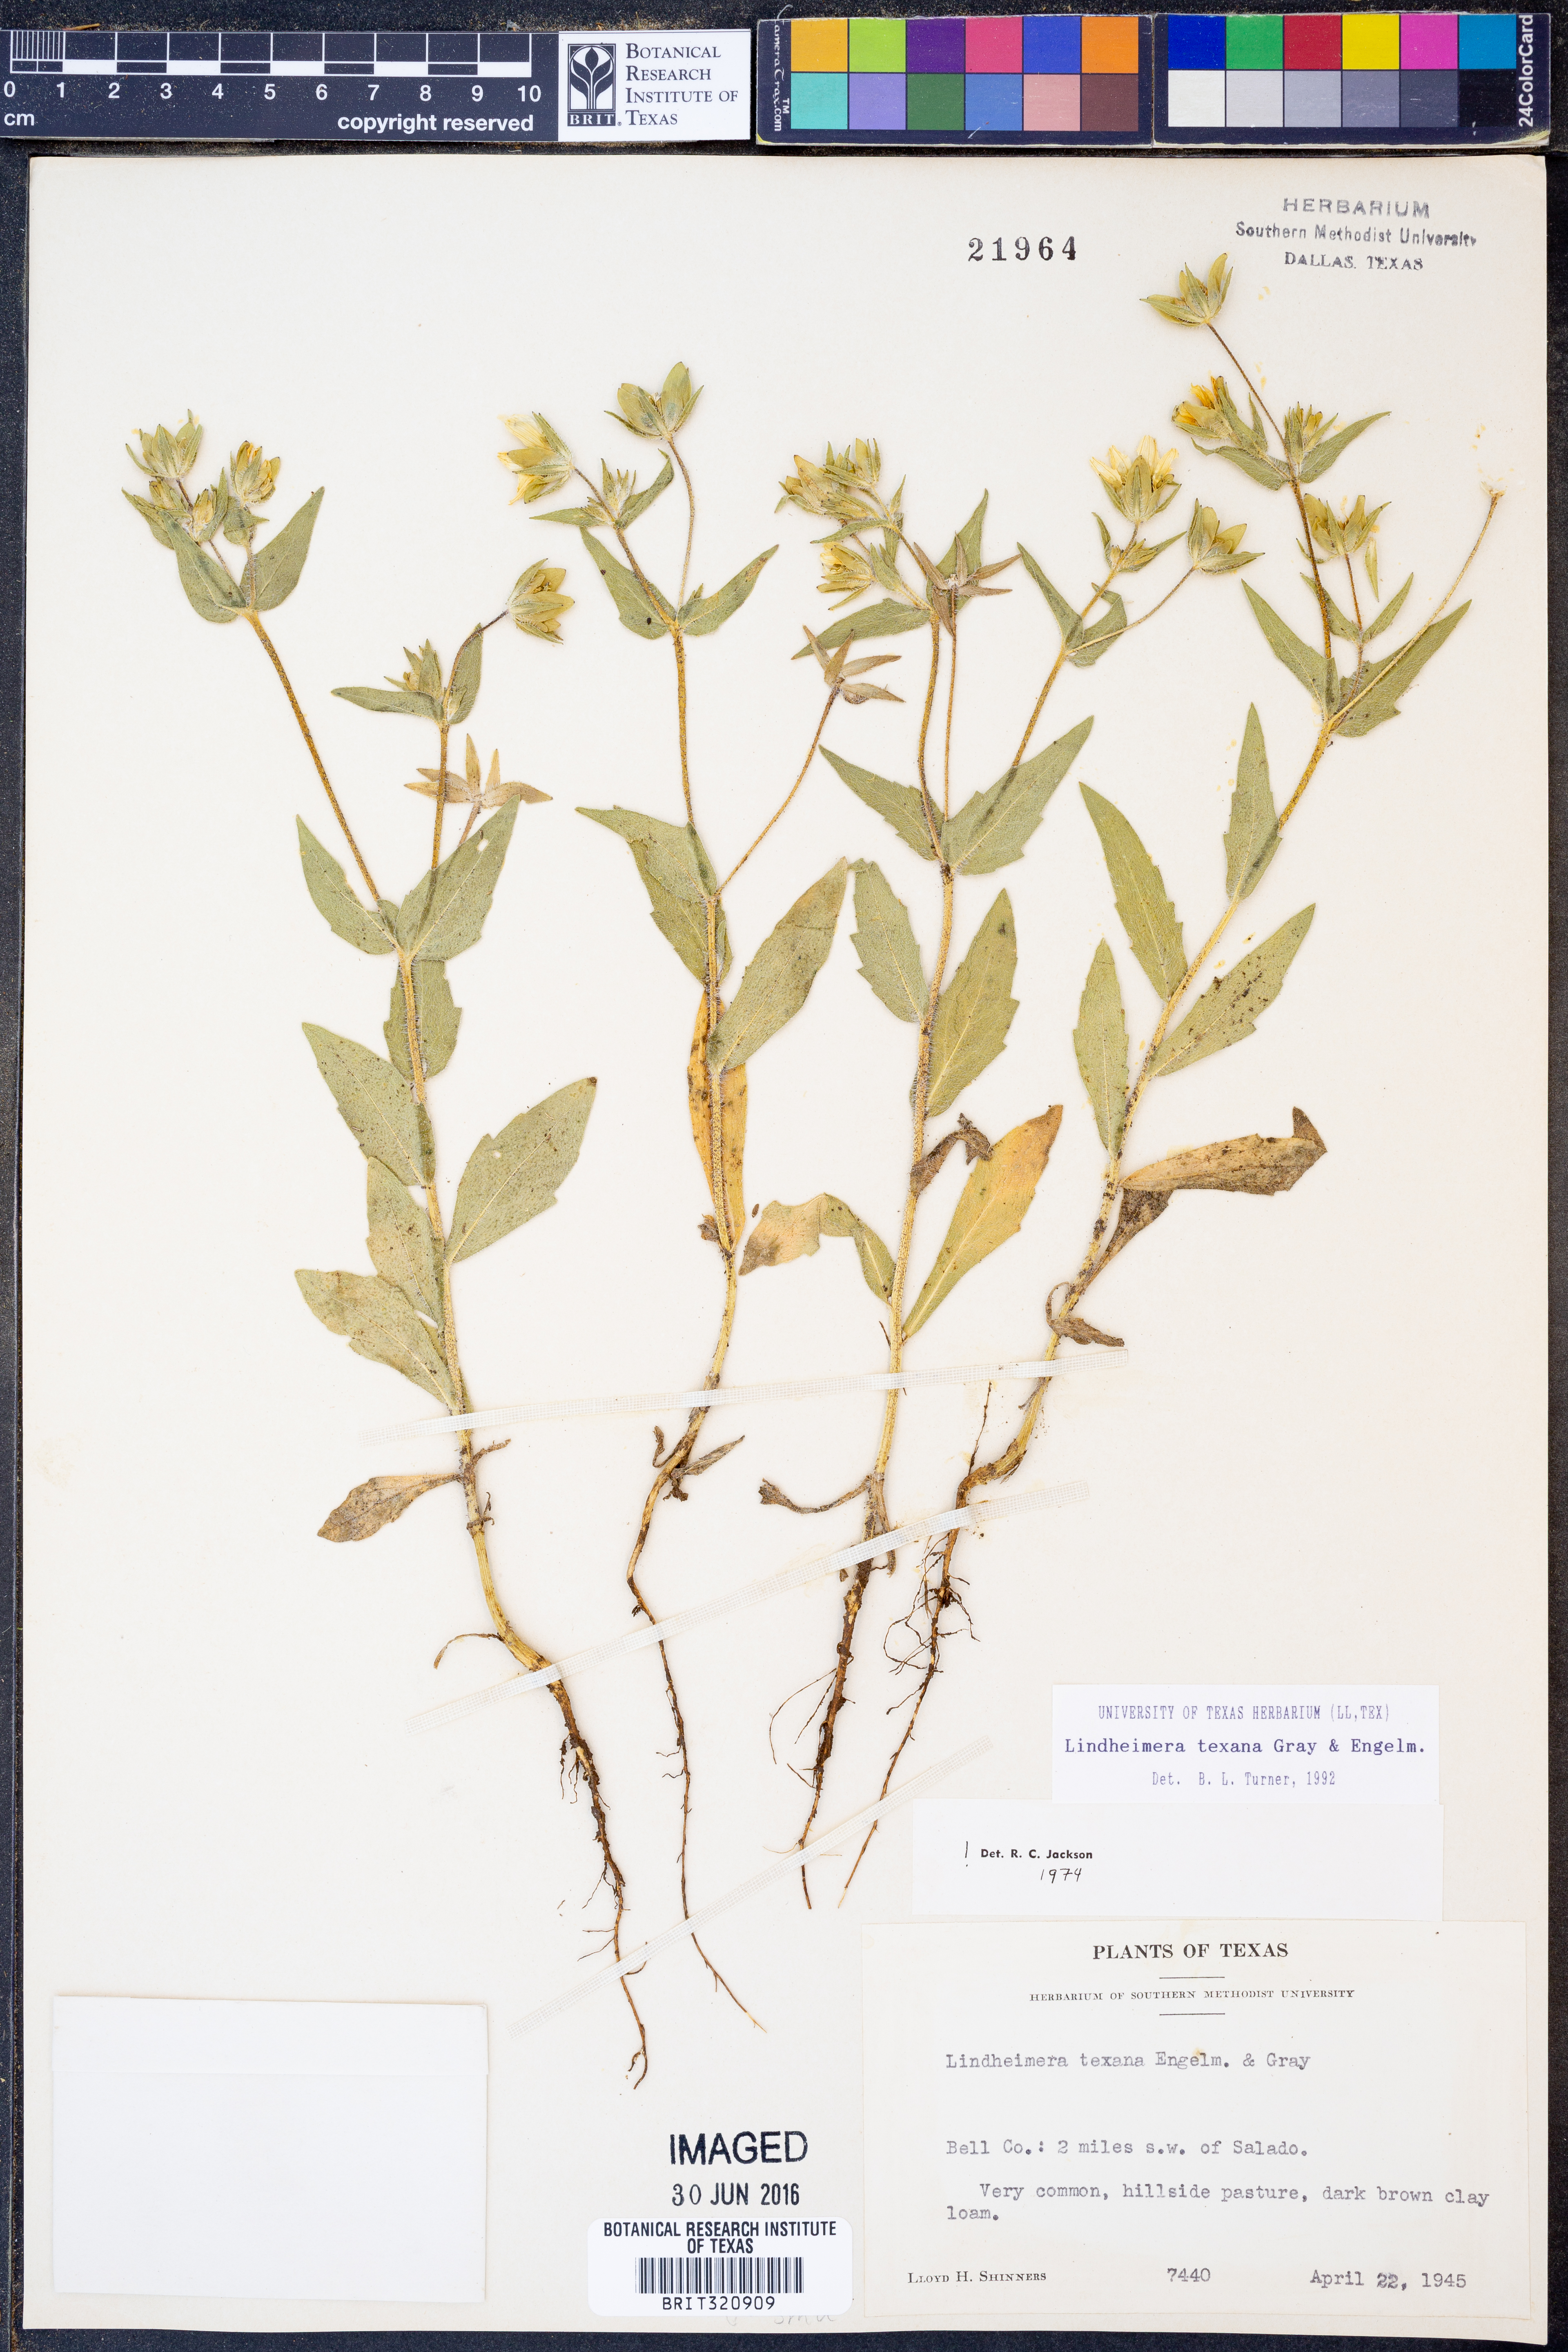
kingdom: Plantae
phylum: Tracheophyta
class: Magnoliopsida
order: Asterales
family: Asteraceae
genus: Lindheimera
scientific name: Lindheimera texana
